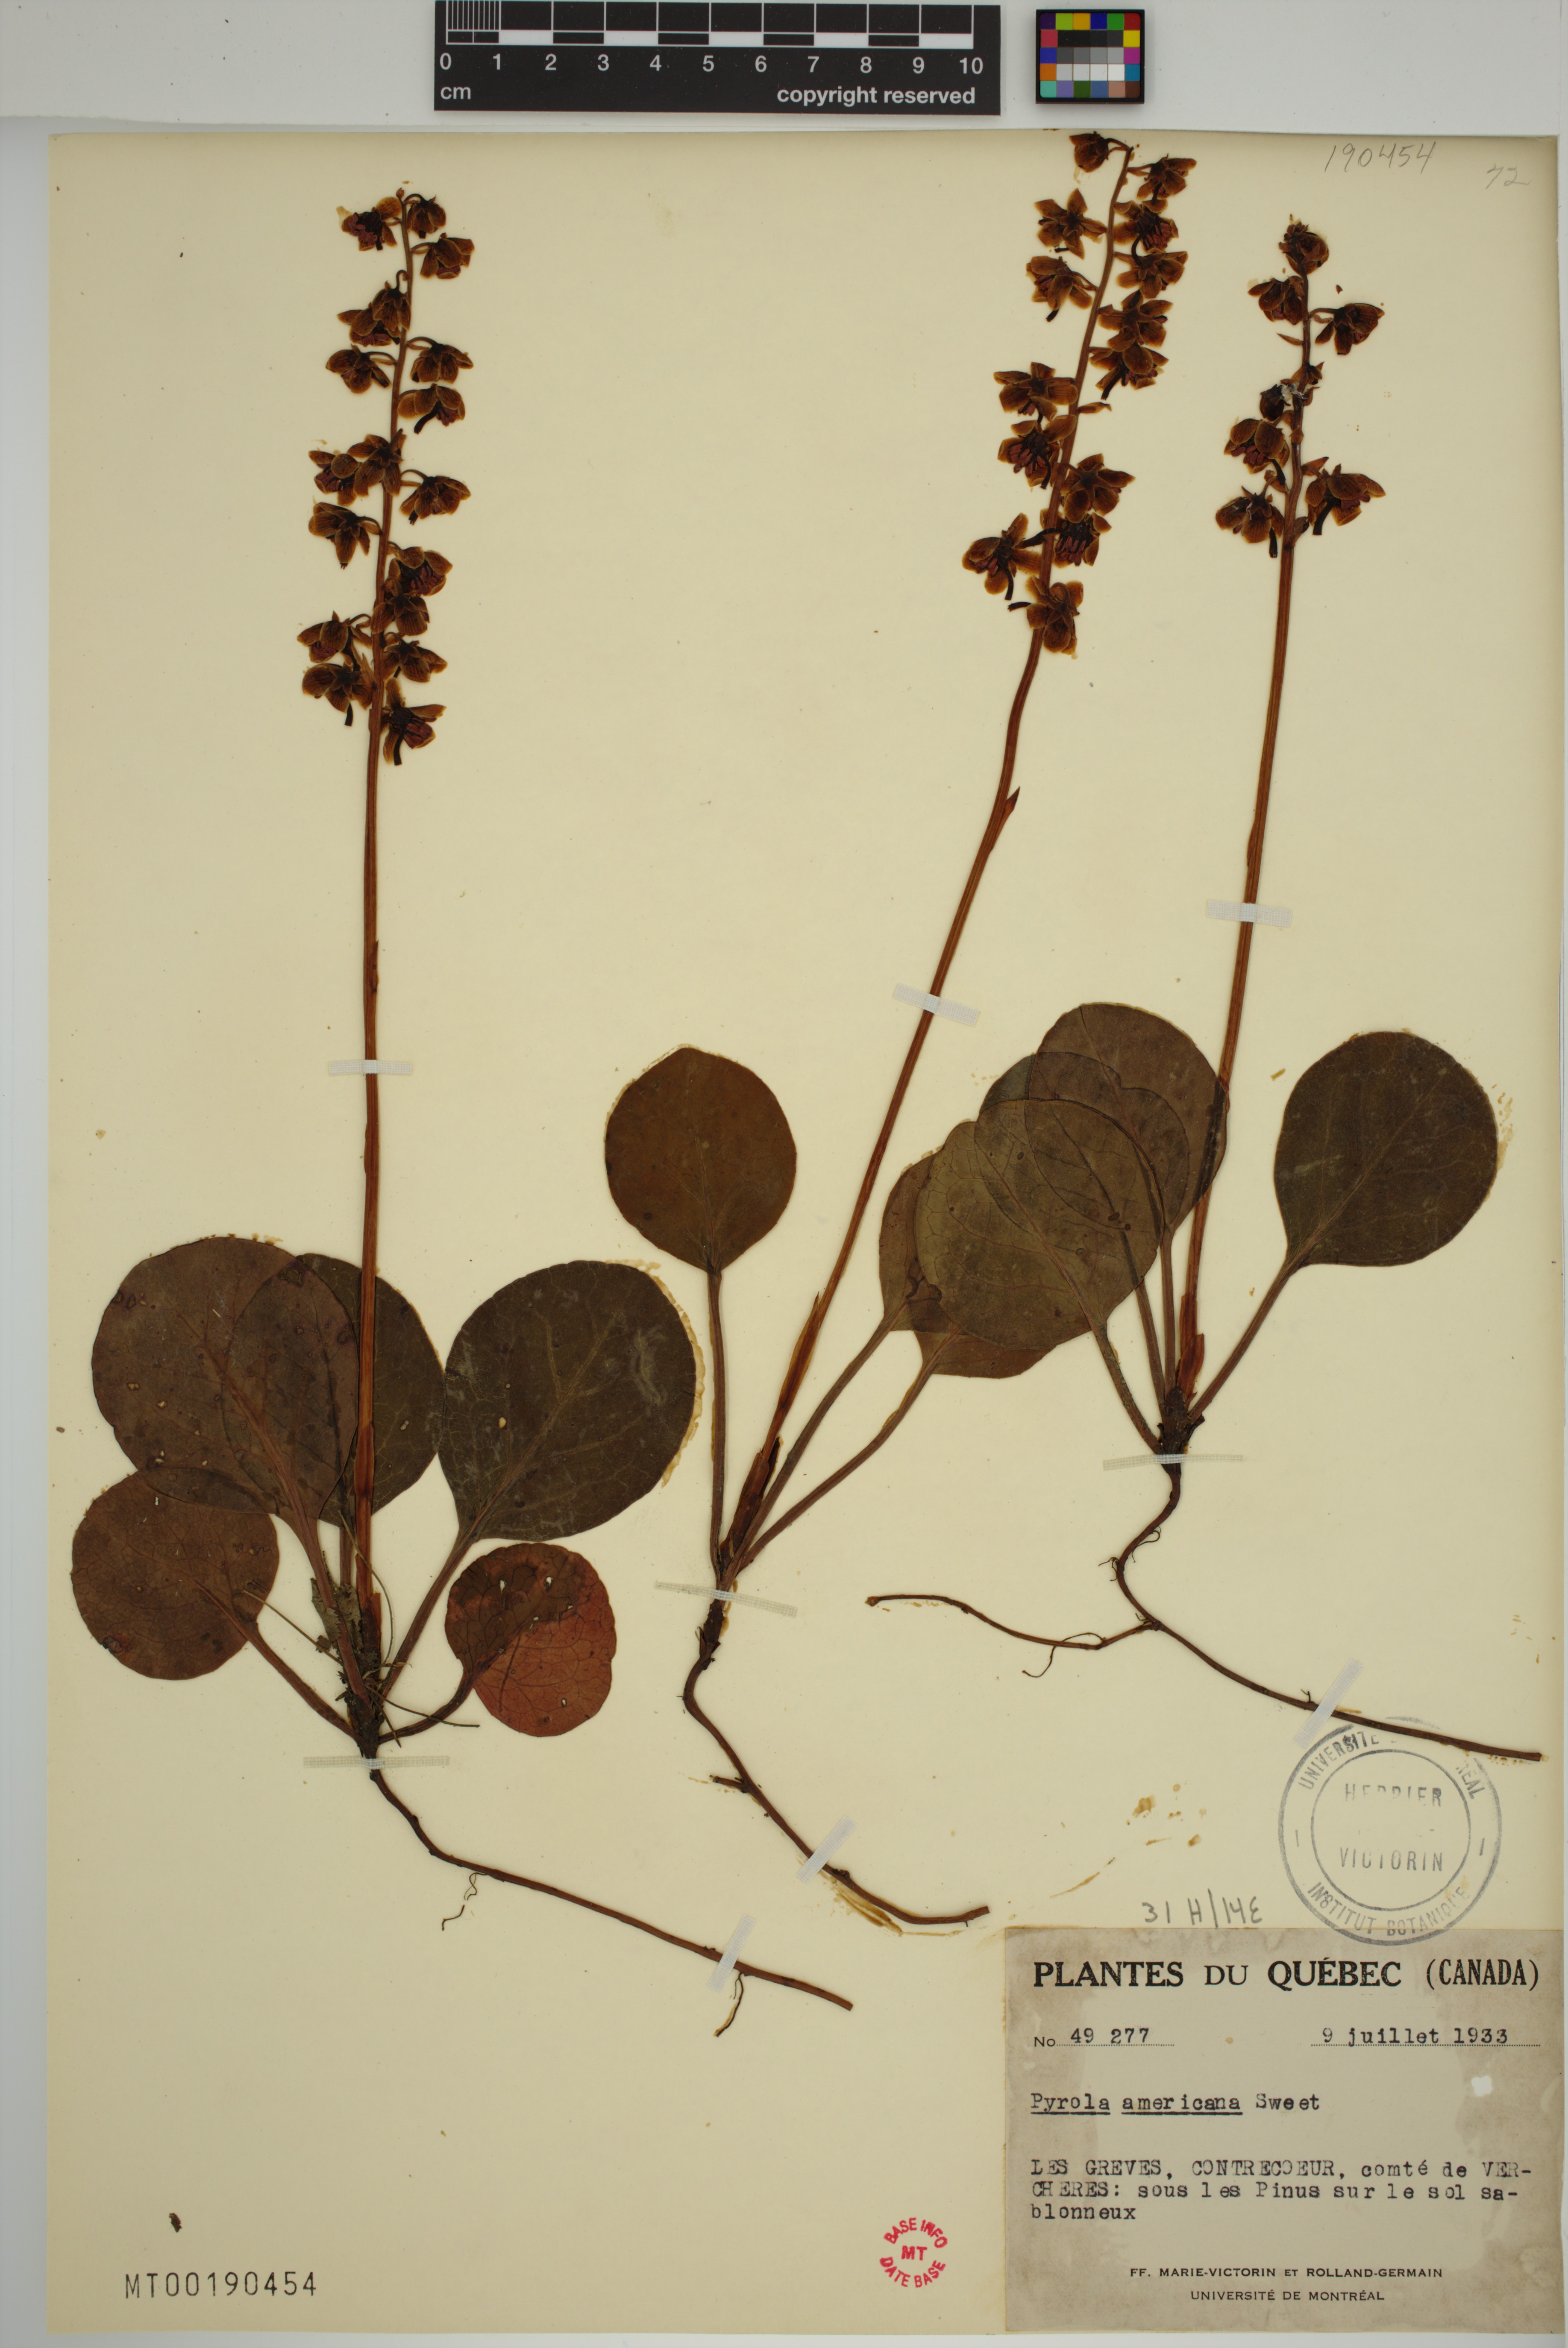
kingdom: Plantae
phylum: Tracheophyta
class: Magnoliopsida
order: Ericales
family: Ericaceae
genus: Pyrola
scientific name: Pyrola americana
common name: American wintergreen
